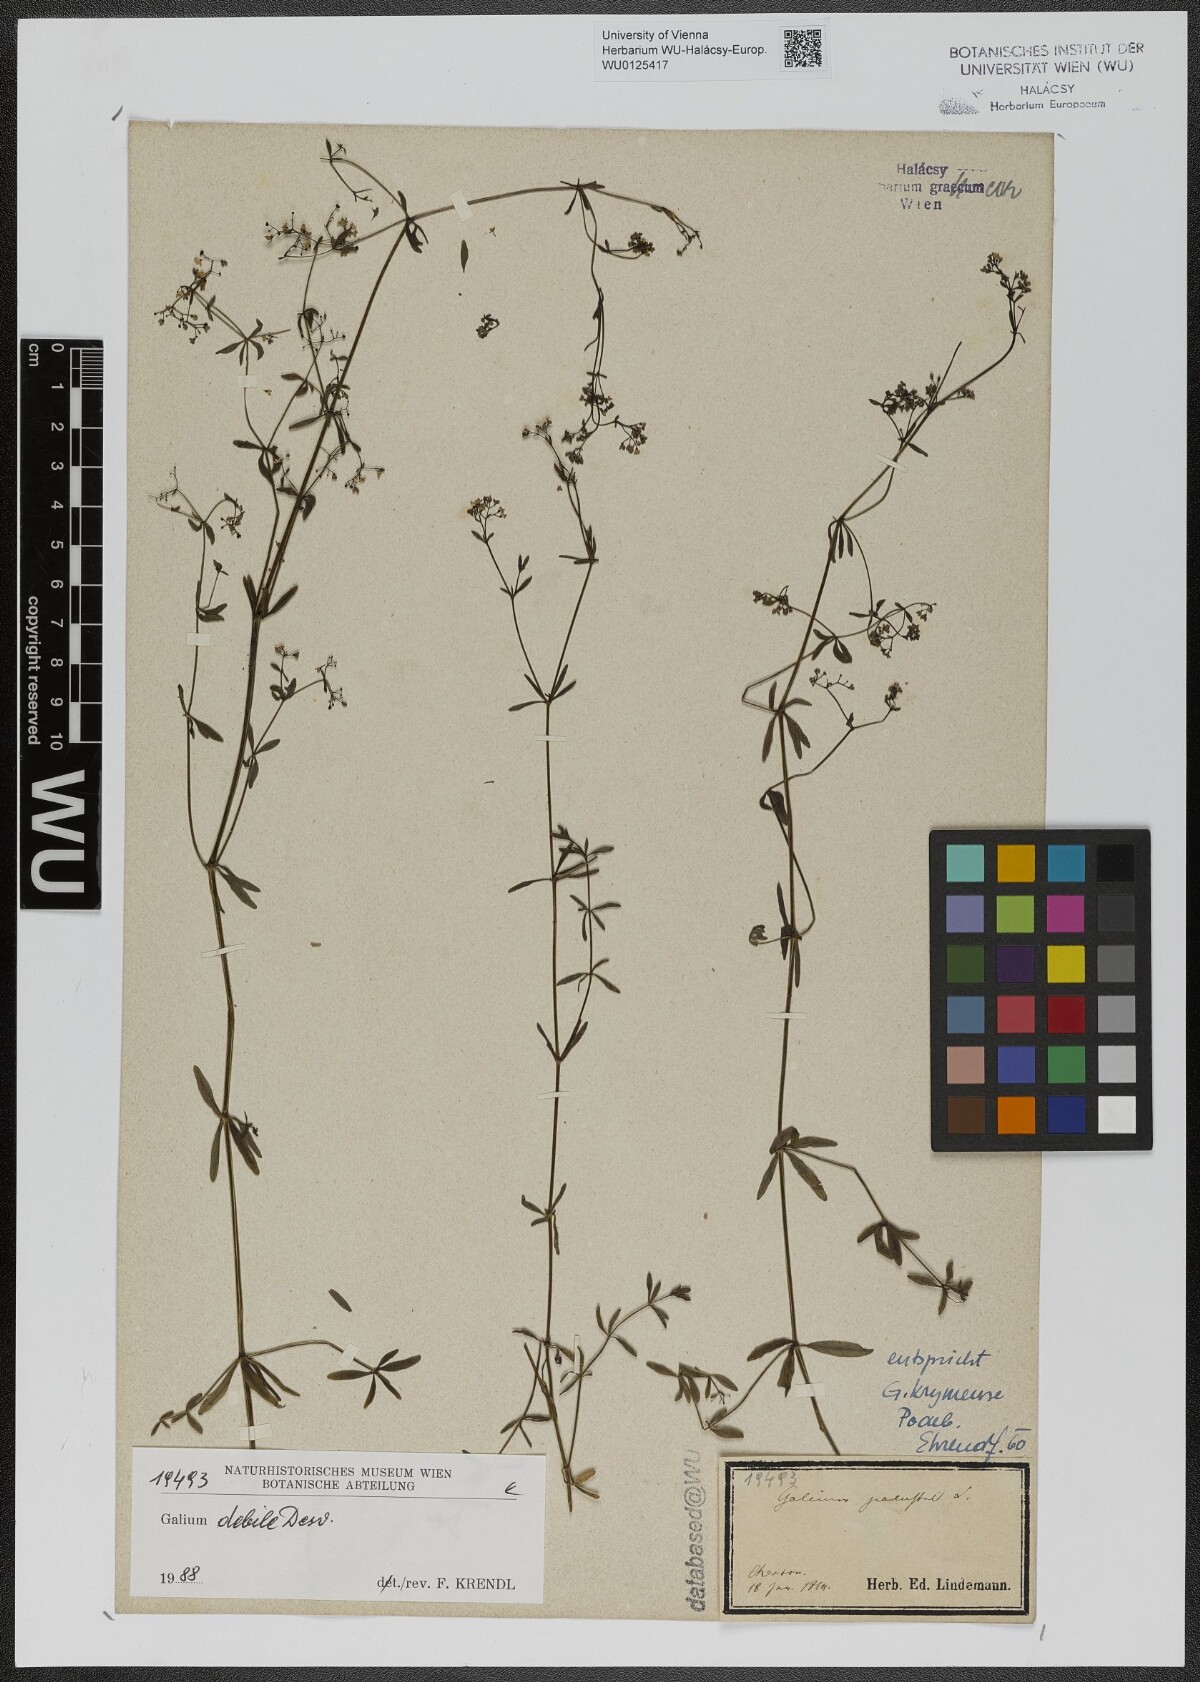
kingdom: Plantae
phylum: Tracheophyta
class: Magnoliopsida
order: Gentianales
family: Rubiaceae
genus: Galium
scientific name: Galium debile
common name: Slender marsh-bedstraw
